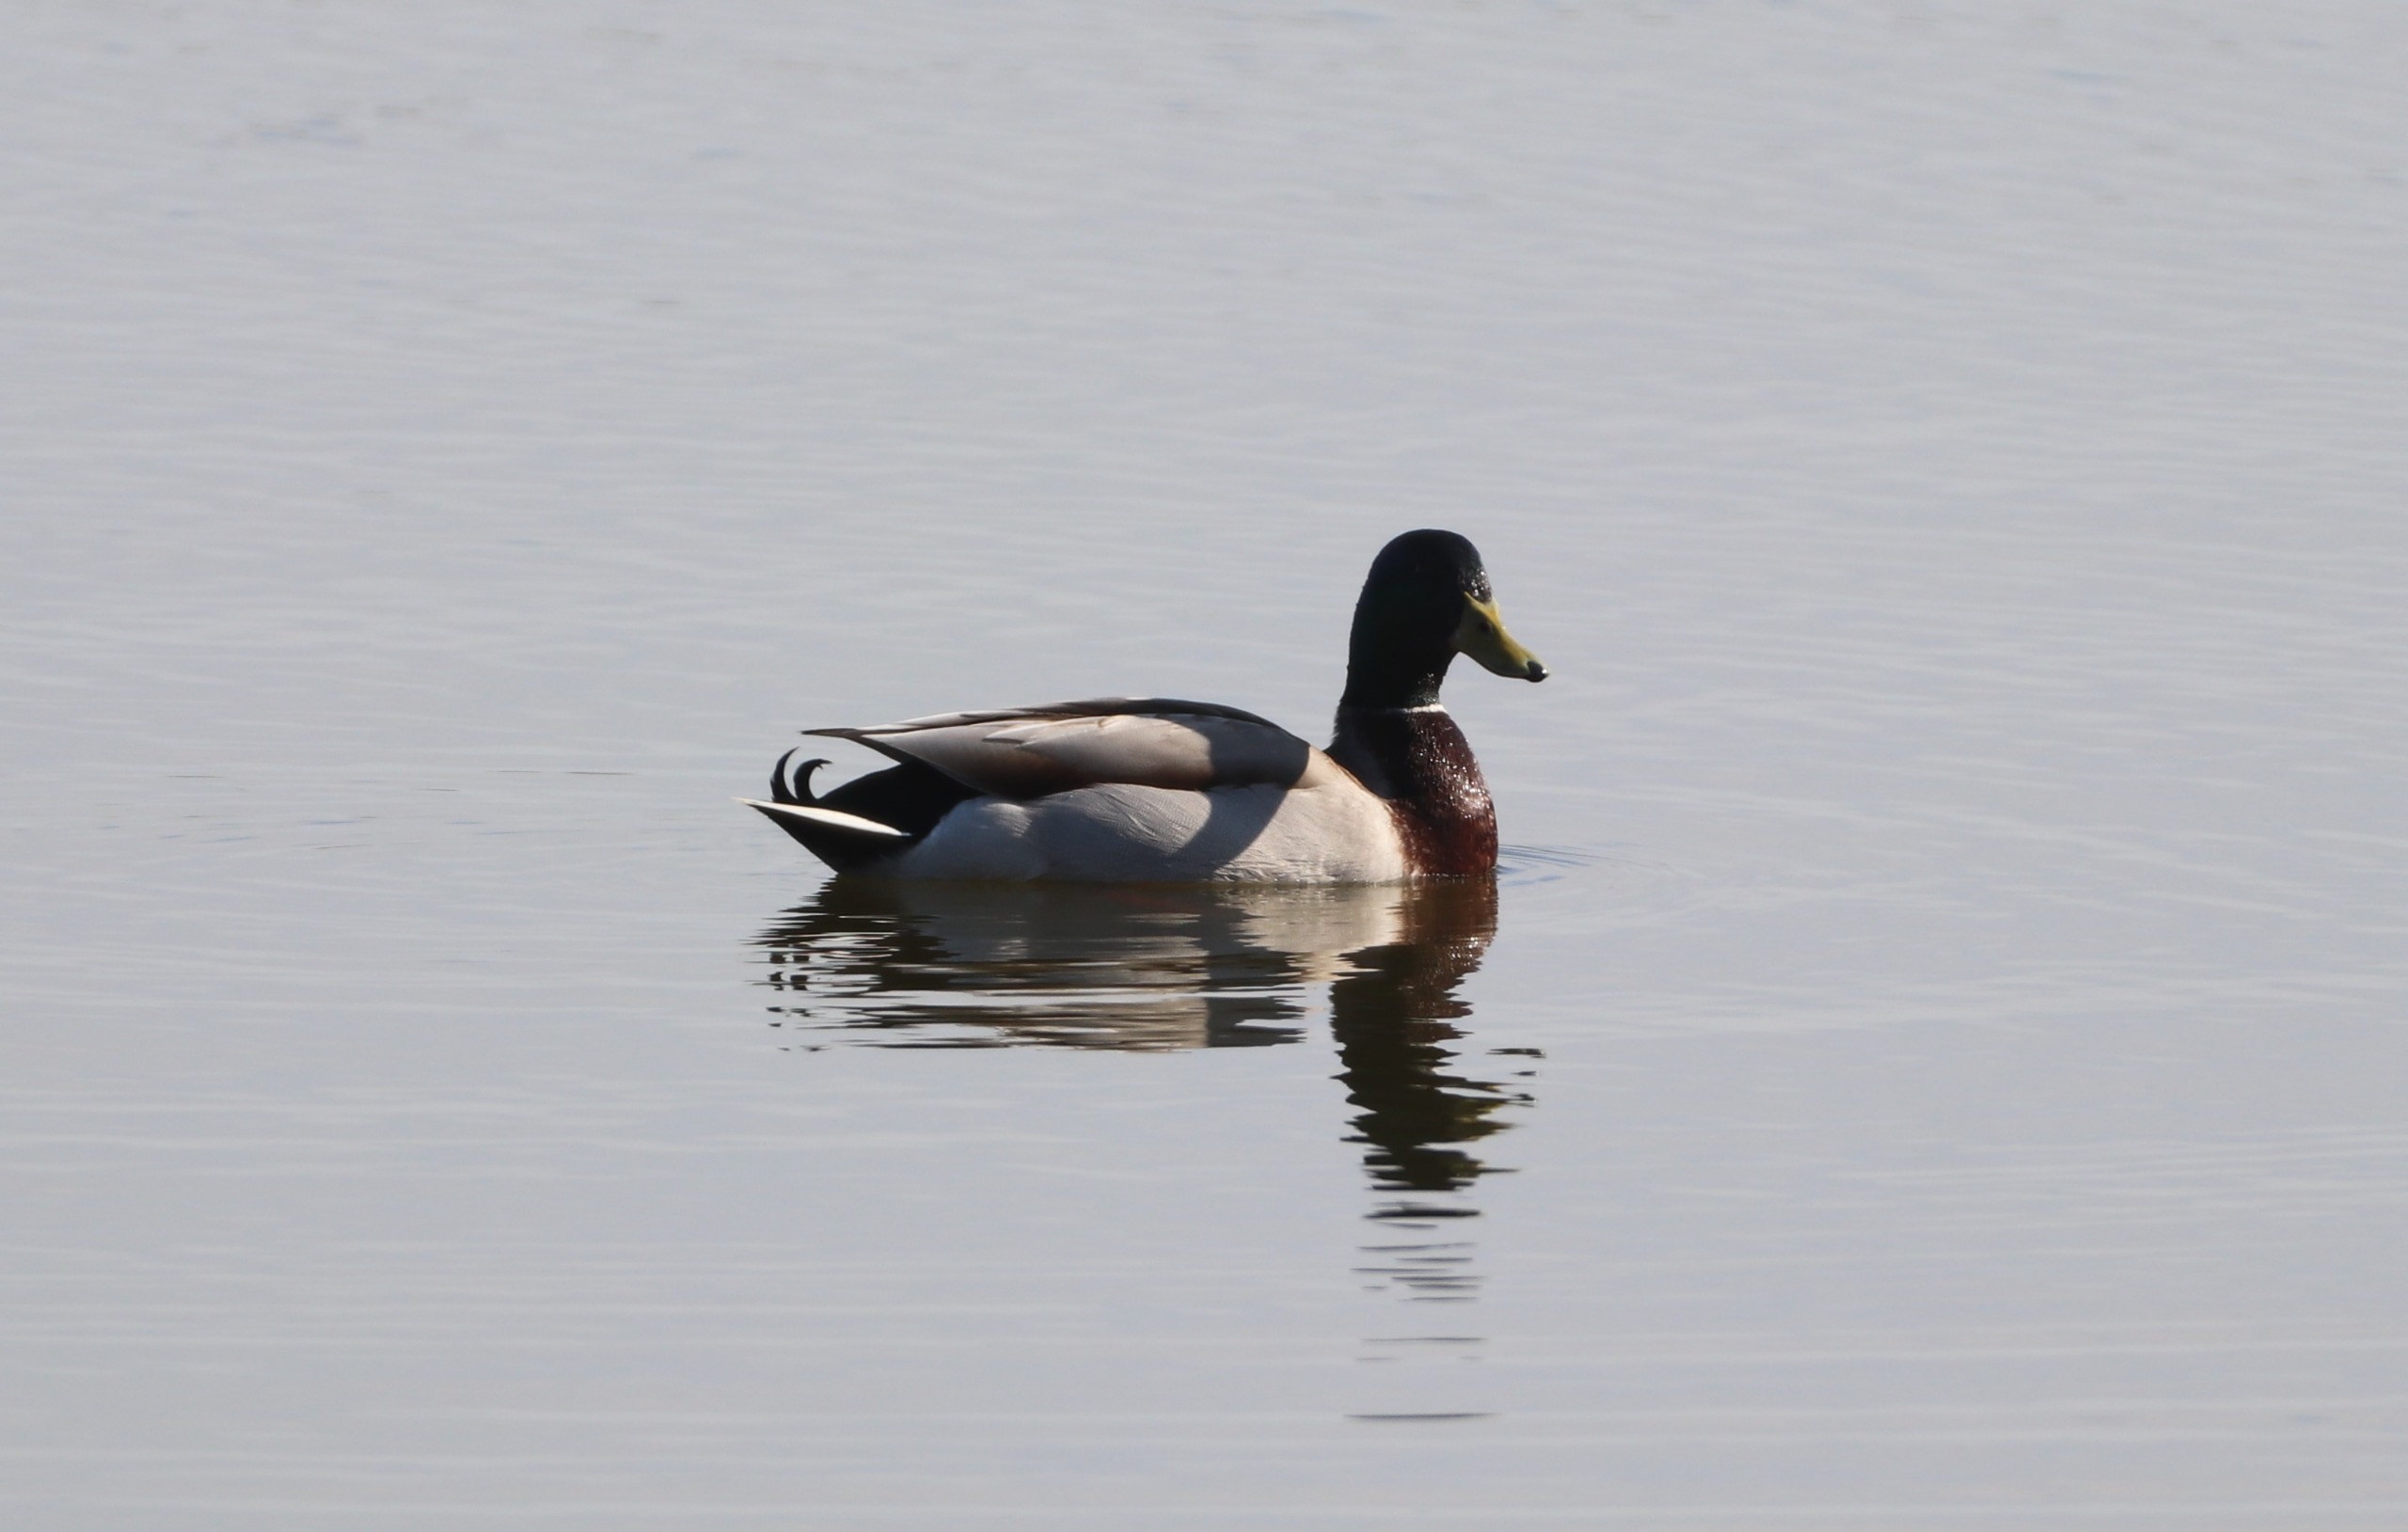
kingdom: Animalia
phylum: Chordata
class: Aves
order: Anseriformes
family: Anatidae
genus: Anas
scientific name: Anas platyrhynchos
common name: Gråand
